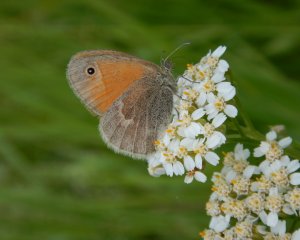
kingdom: Animalia
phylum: Arthropoda
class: Insecta
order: Lepidoptera
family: Nymphalidae
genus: Coenonympha
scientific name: Coenonympha tullia
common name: Large Heath
